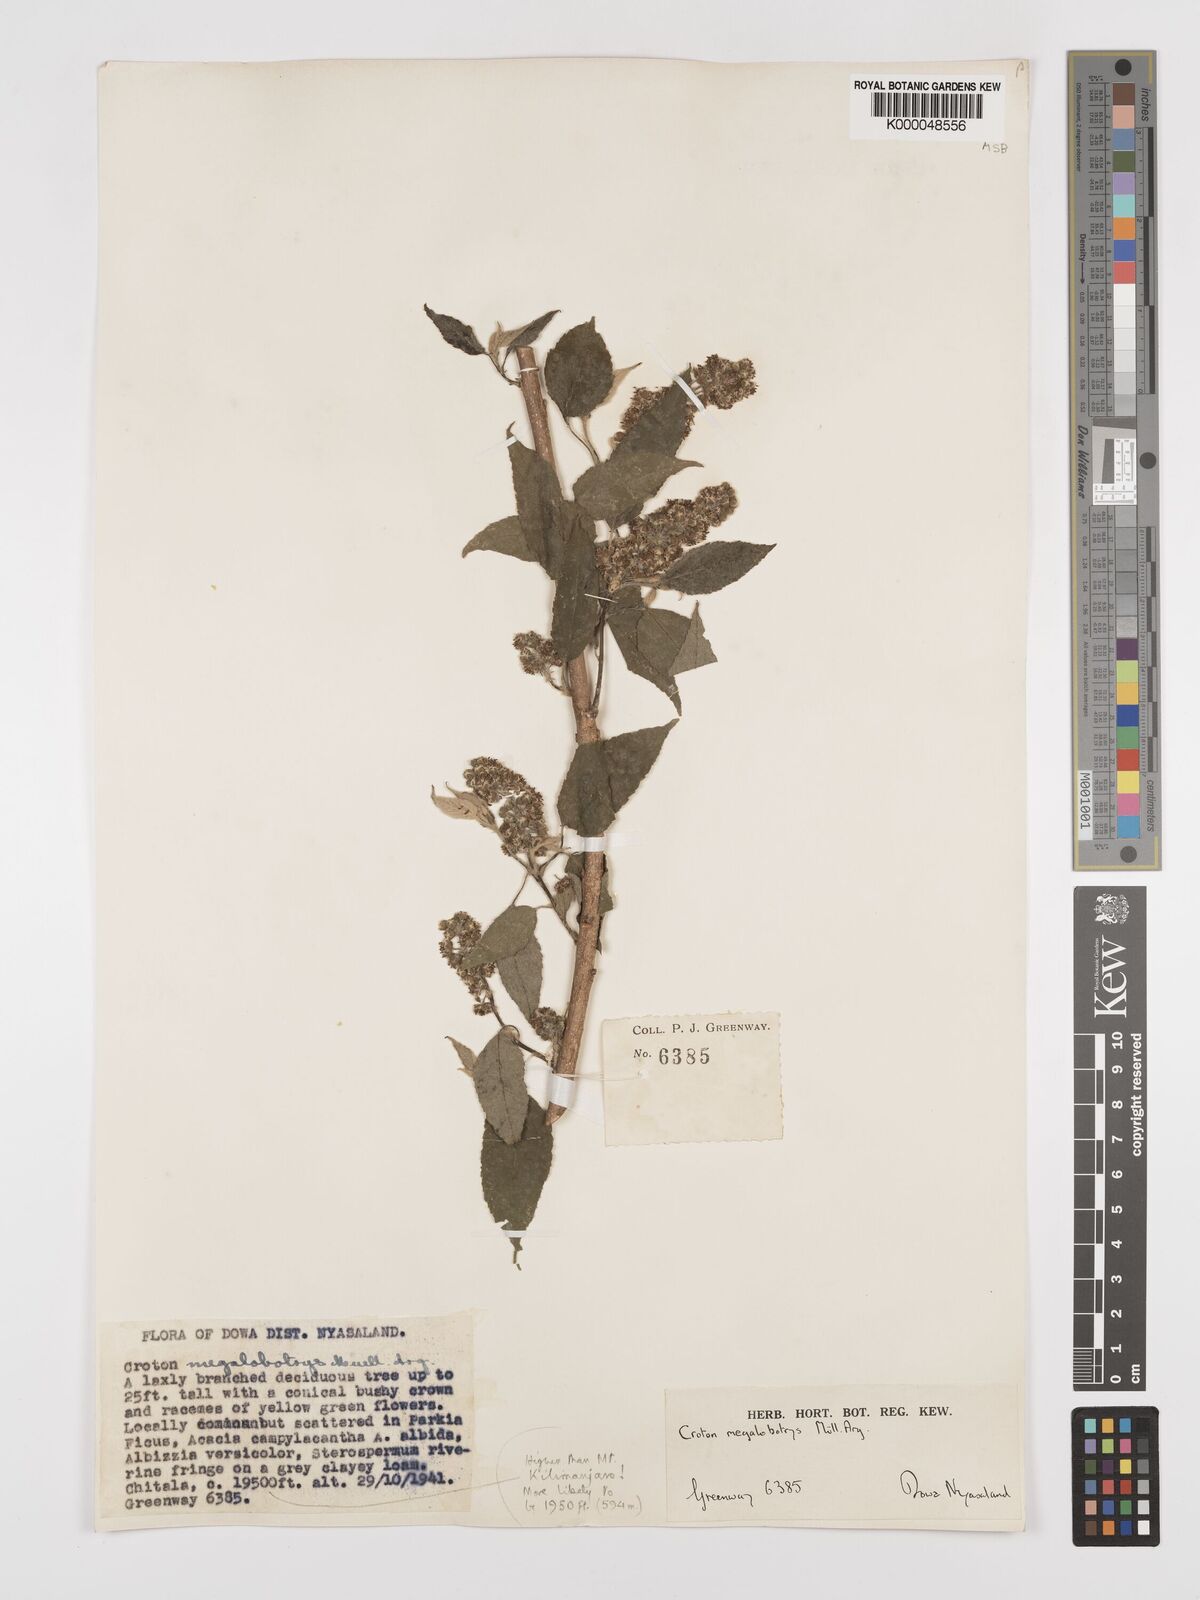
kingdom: Plantae
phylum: Tracheophyta
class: Magnoliopsida
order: Malpighiales
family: Euphorbiaceae
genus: Croton
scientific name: Croton
